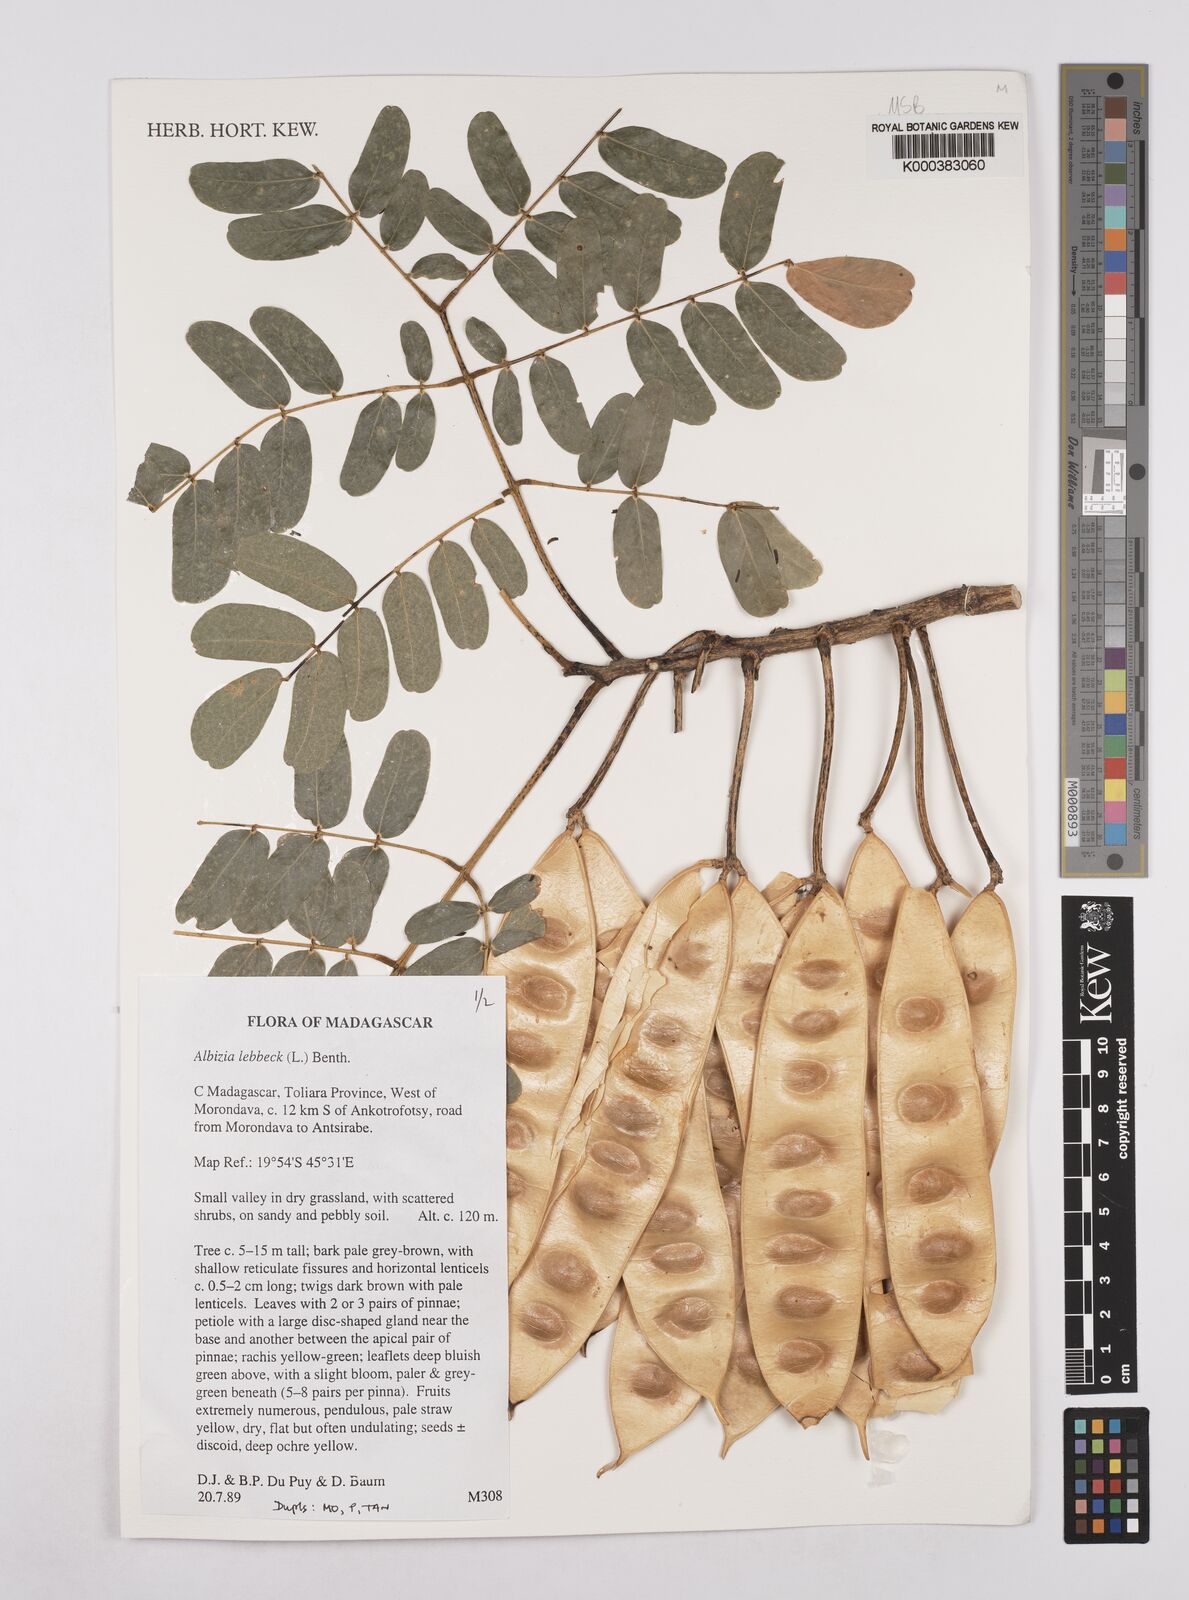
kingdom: Plantae
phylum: Tracheophyta
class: Magnoliopsida
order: Fabales
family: Fabaceae
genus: Albizia
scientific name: Albizia lebbeck
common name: Woman's tongue
